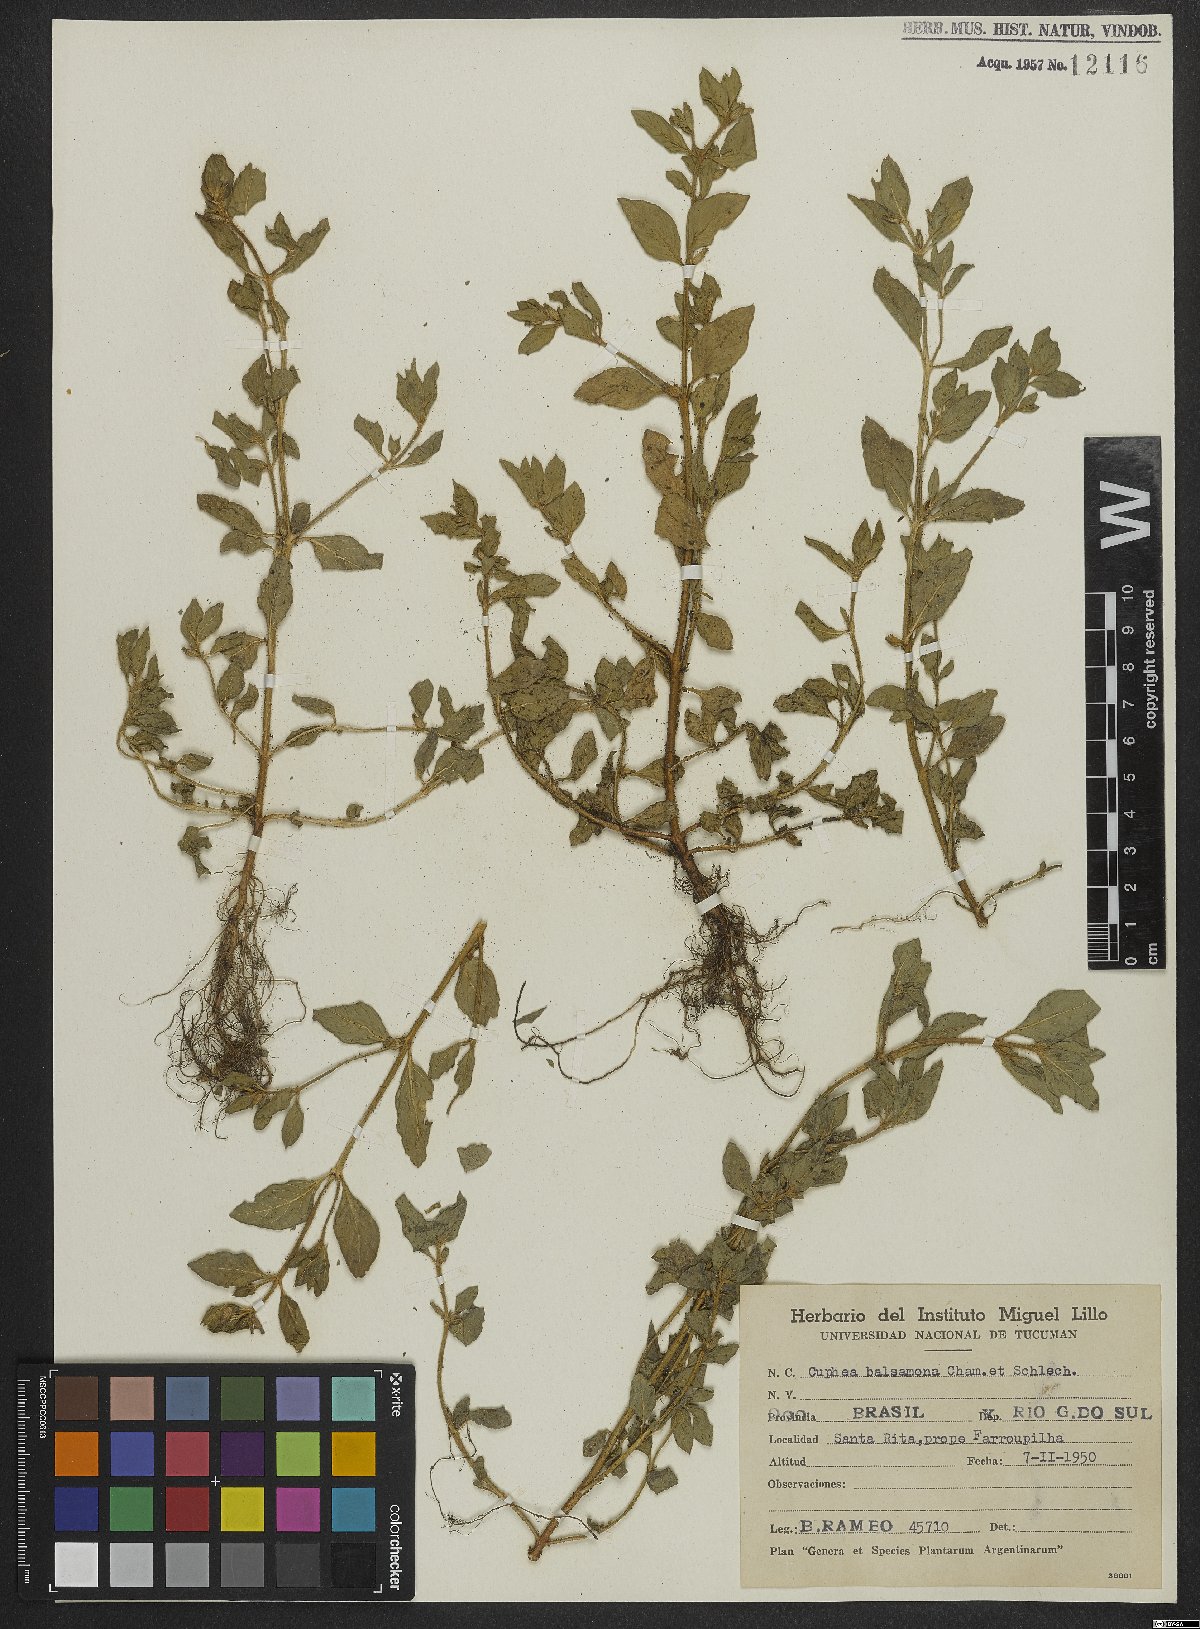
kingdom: Plantae
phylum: Tracheophyta
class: Magnoliopsida
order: Myrtales
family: Lythraceae
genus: Cuphea
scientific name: Cuphea carthagenensis
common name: Colombian waxweed
